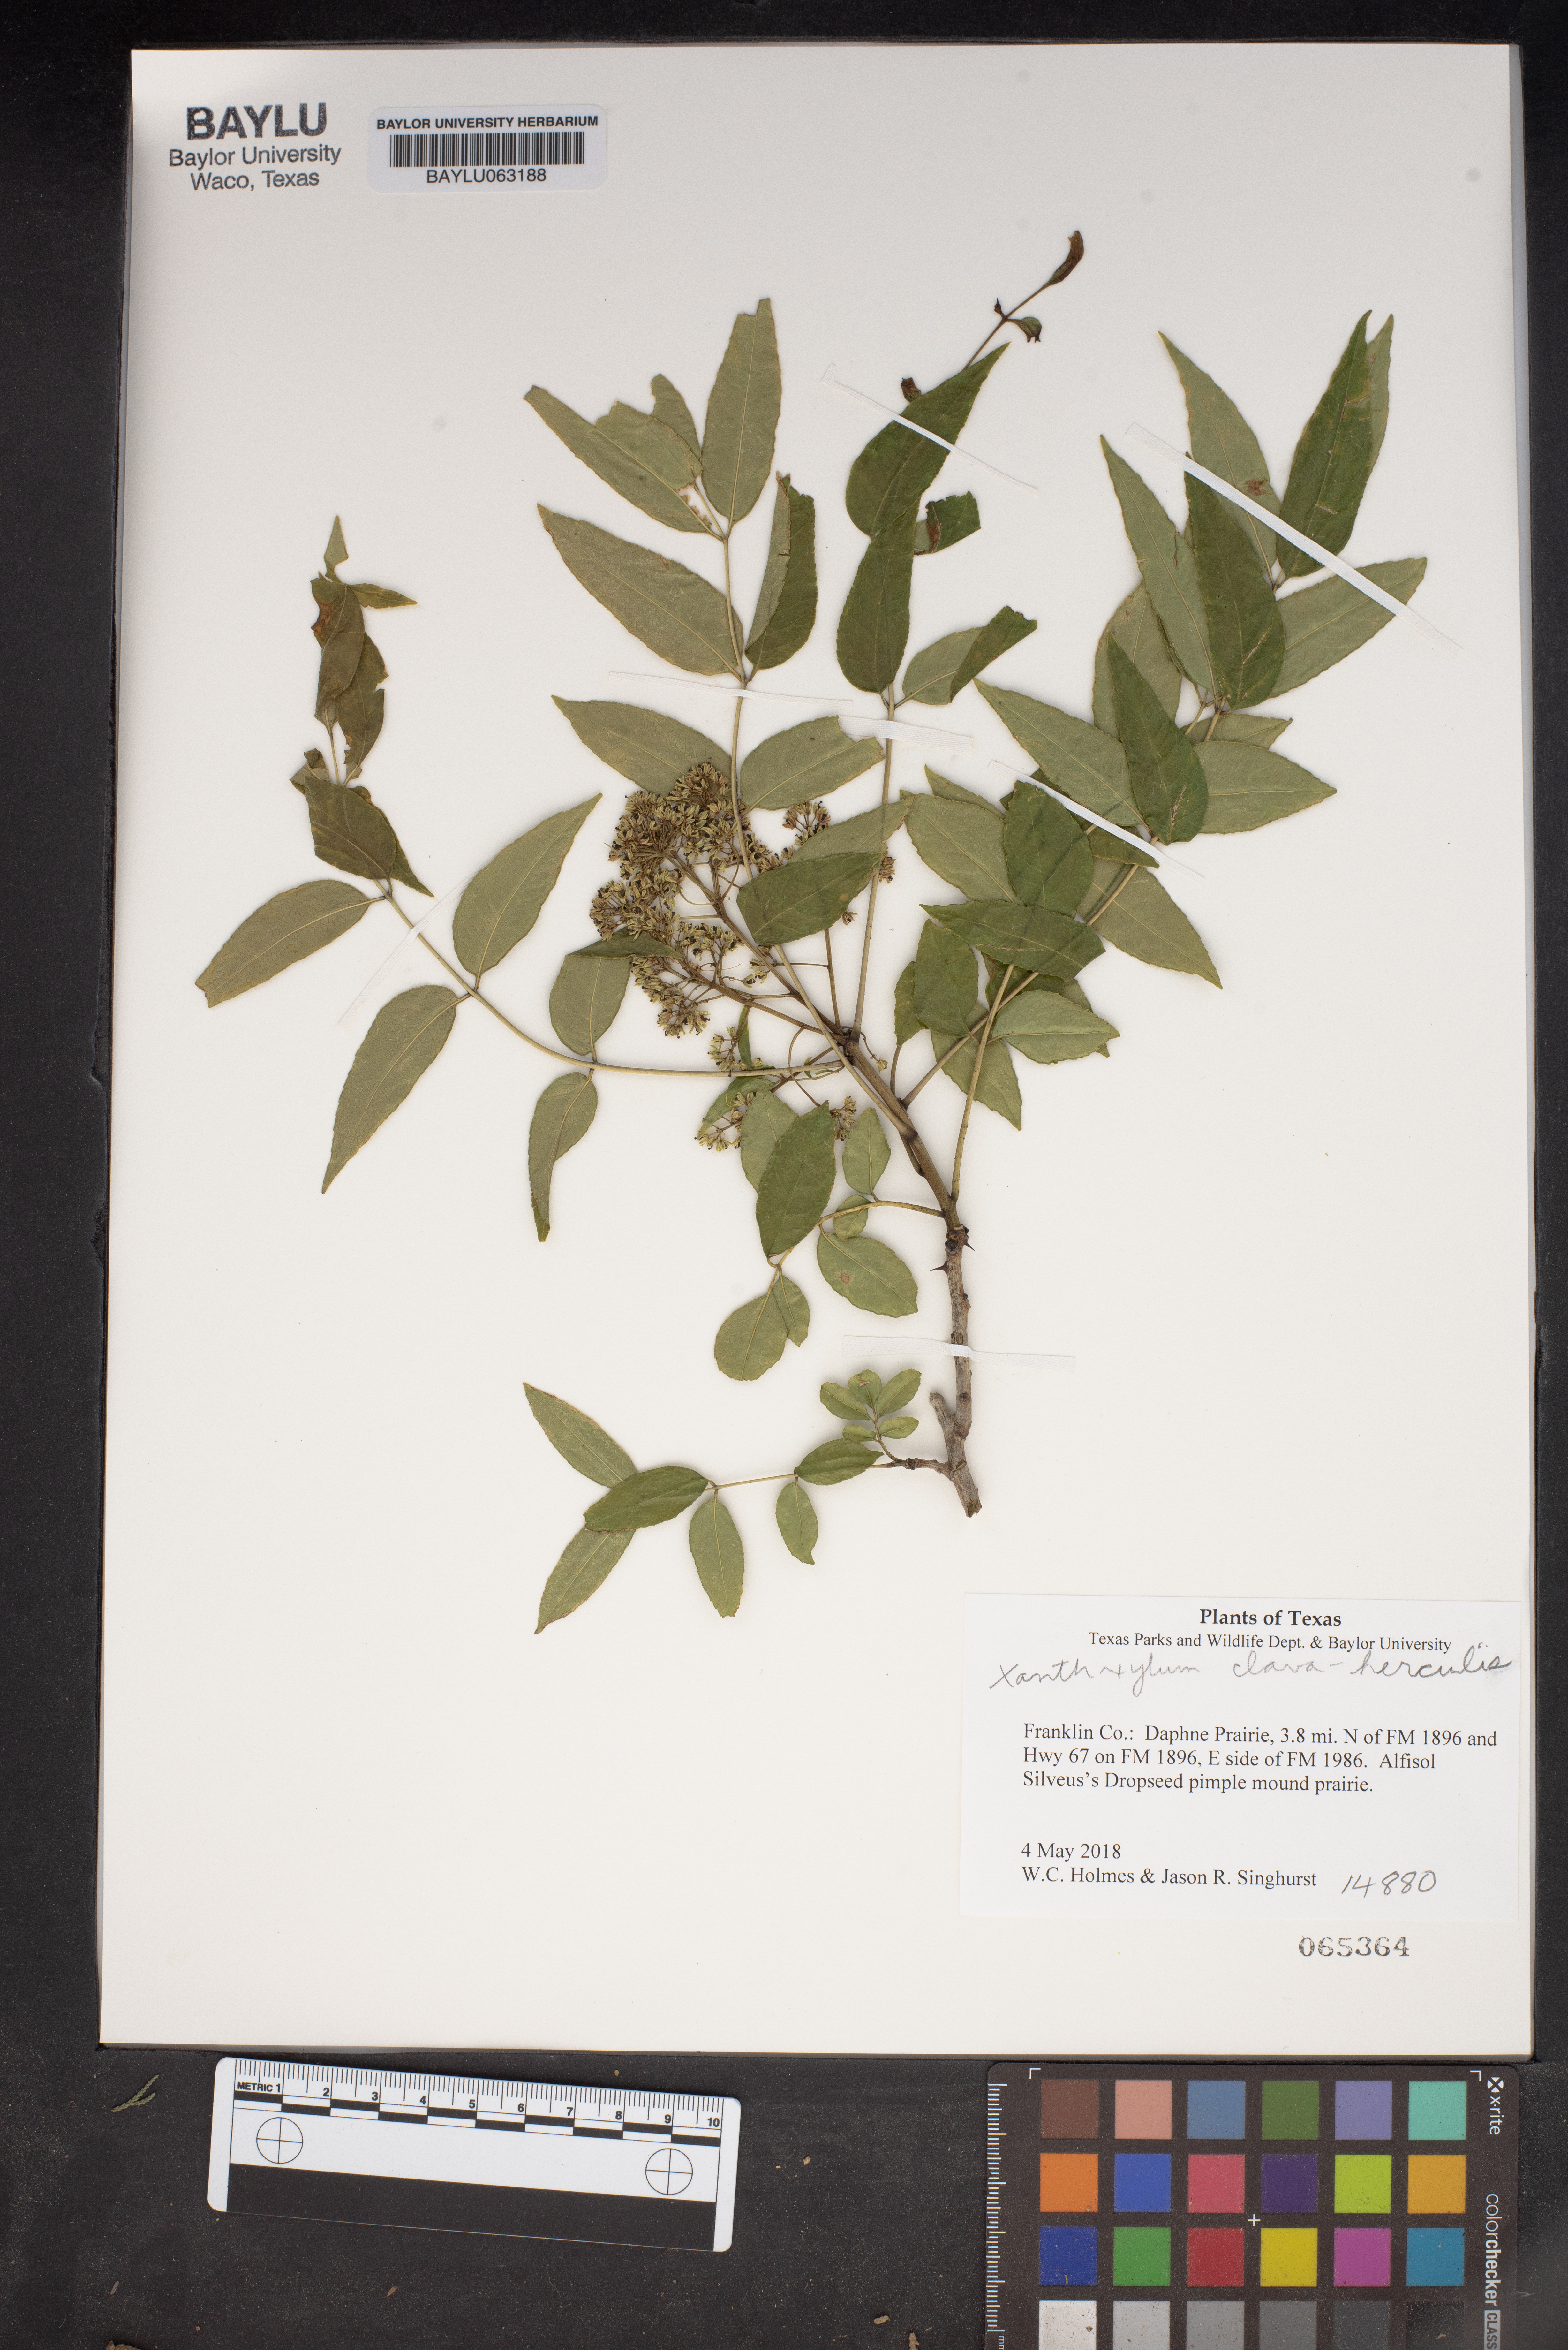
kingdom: Plantae
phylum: Tracheophyta
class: Magnoliopsida
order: Sapindales
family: Rutaceae
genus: Zanthoxylum
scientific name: Zanthoxylum avicennae
